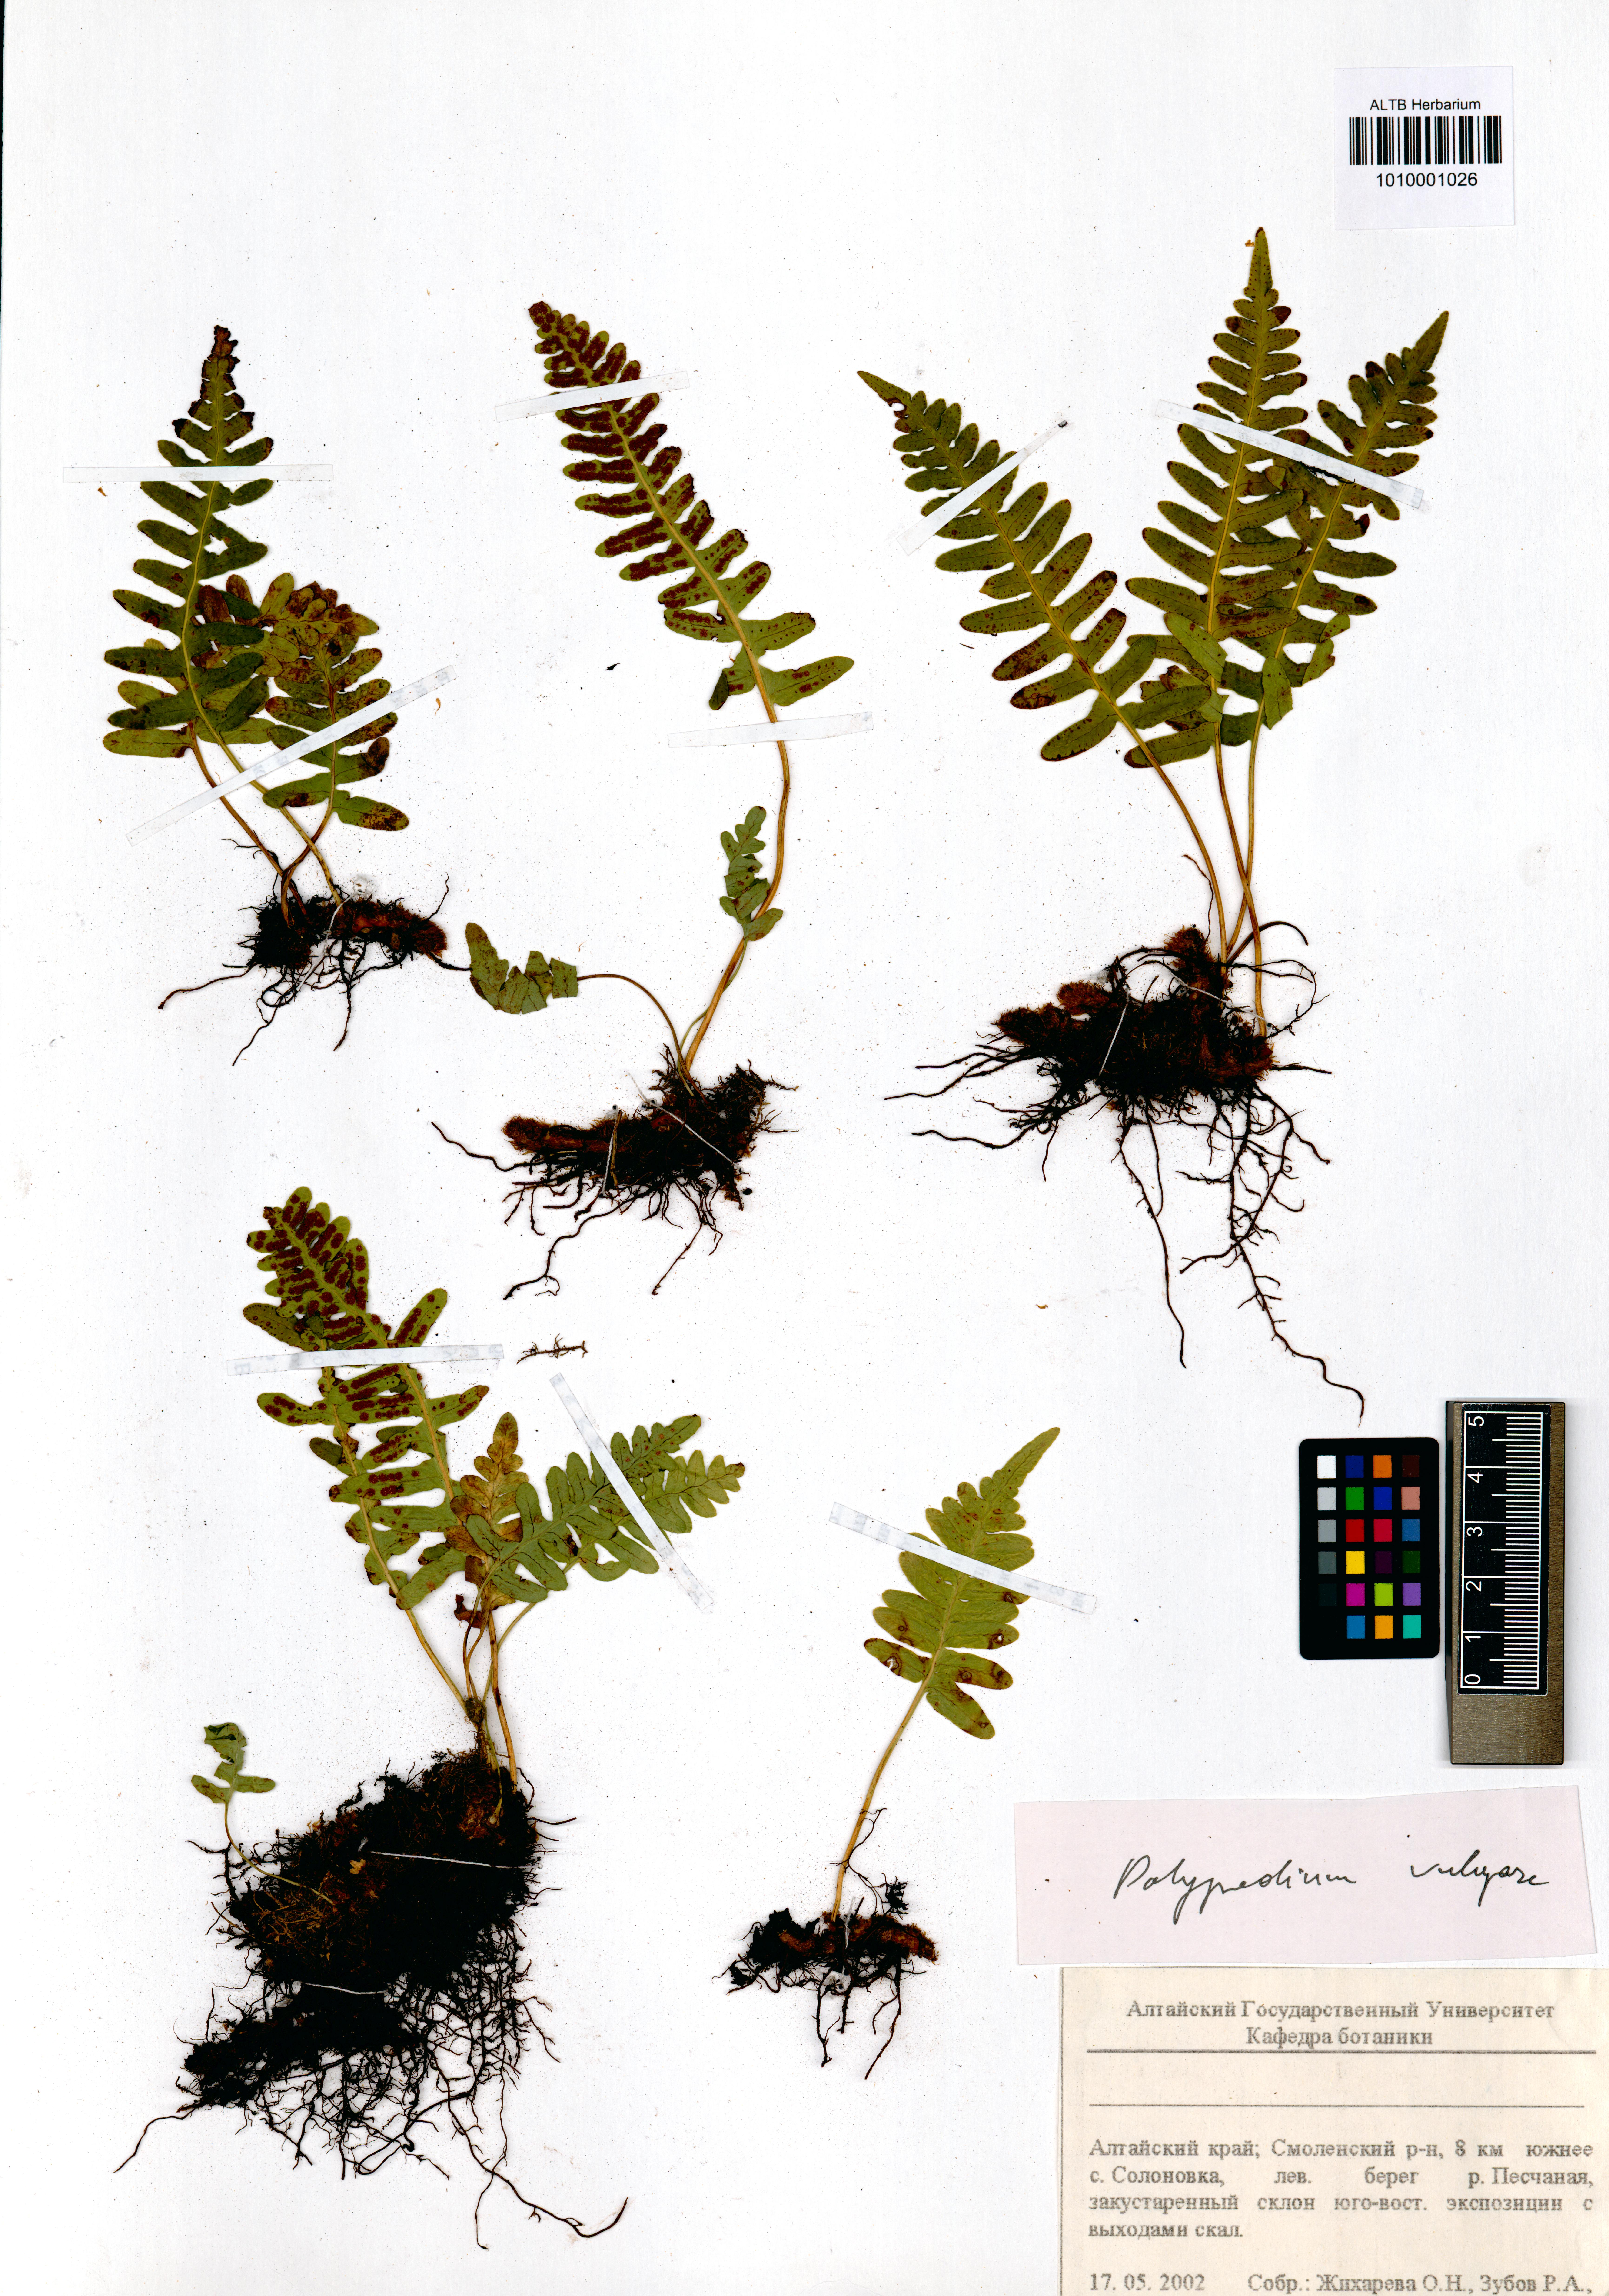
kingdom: Plantae
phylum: Tracheophyta
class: Polypodiopsida
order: Polypodiales
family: Polypodiaceae
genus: Polypodium
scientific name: Polypodium vulgare
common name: Common polypody
